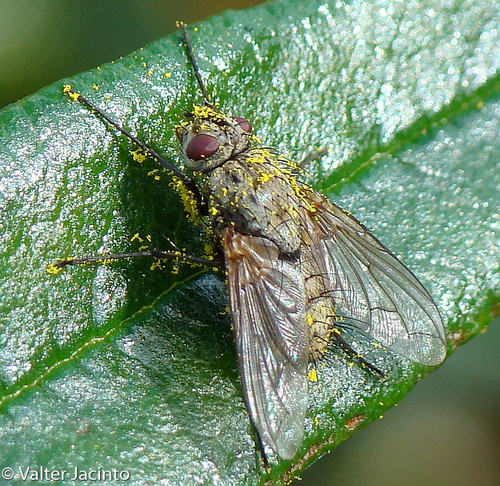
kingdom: Animalia
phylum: Arthropoda
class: Insecta
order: Diptera
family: Tachinidae
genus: Estheria
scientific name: Estheria iberica
